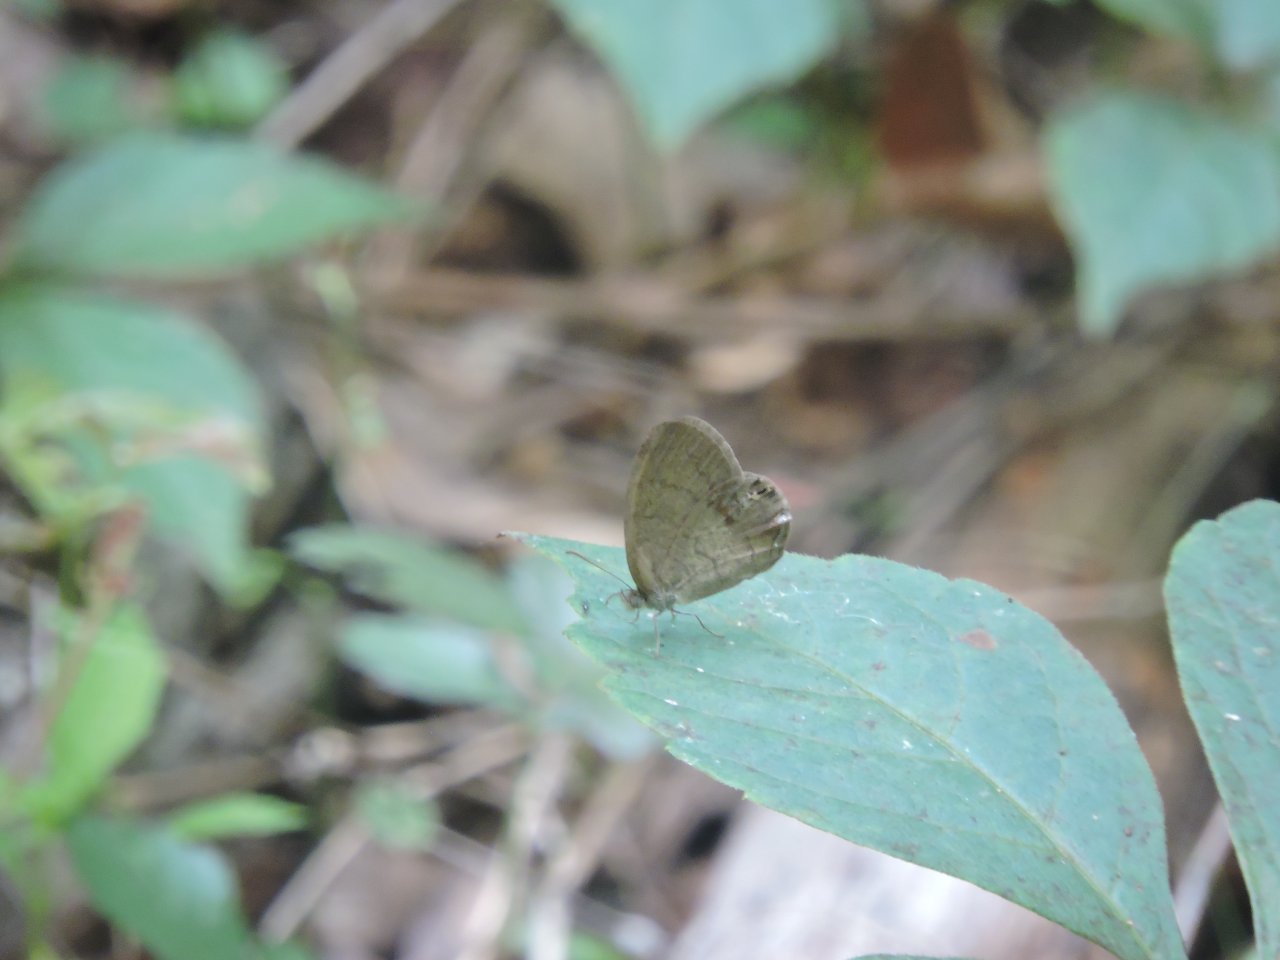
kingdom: Animalia
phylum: Arthropoda
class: Insecta
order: Lepidoptera
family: Nymphalidae
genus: Euptychia
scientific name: Euptychia cornelius
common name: Gemmed Satyr
